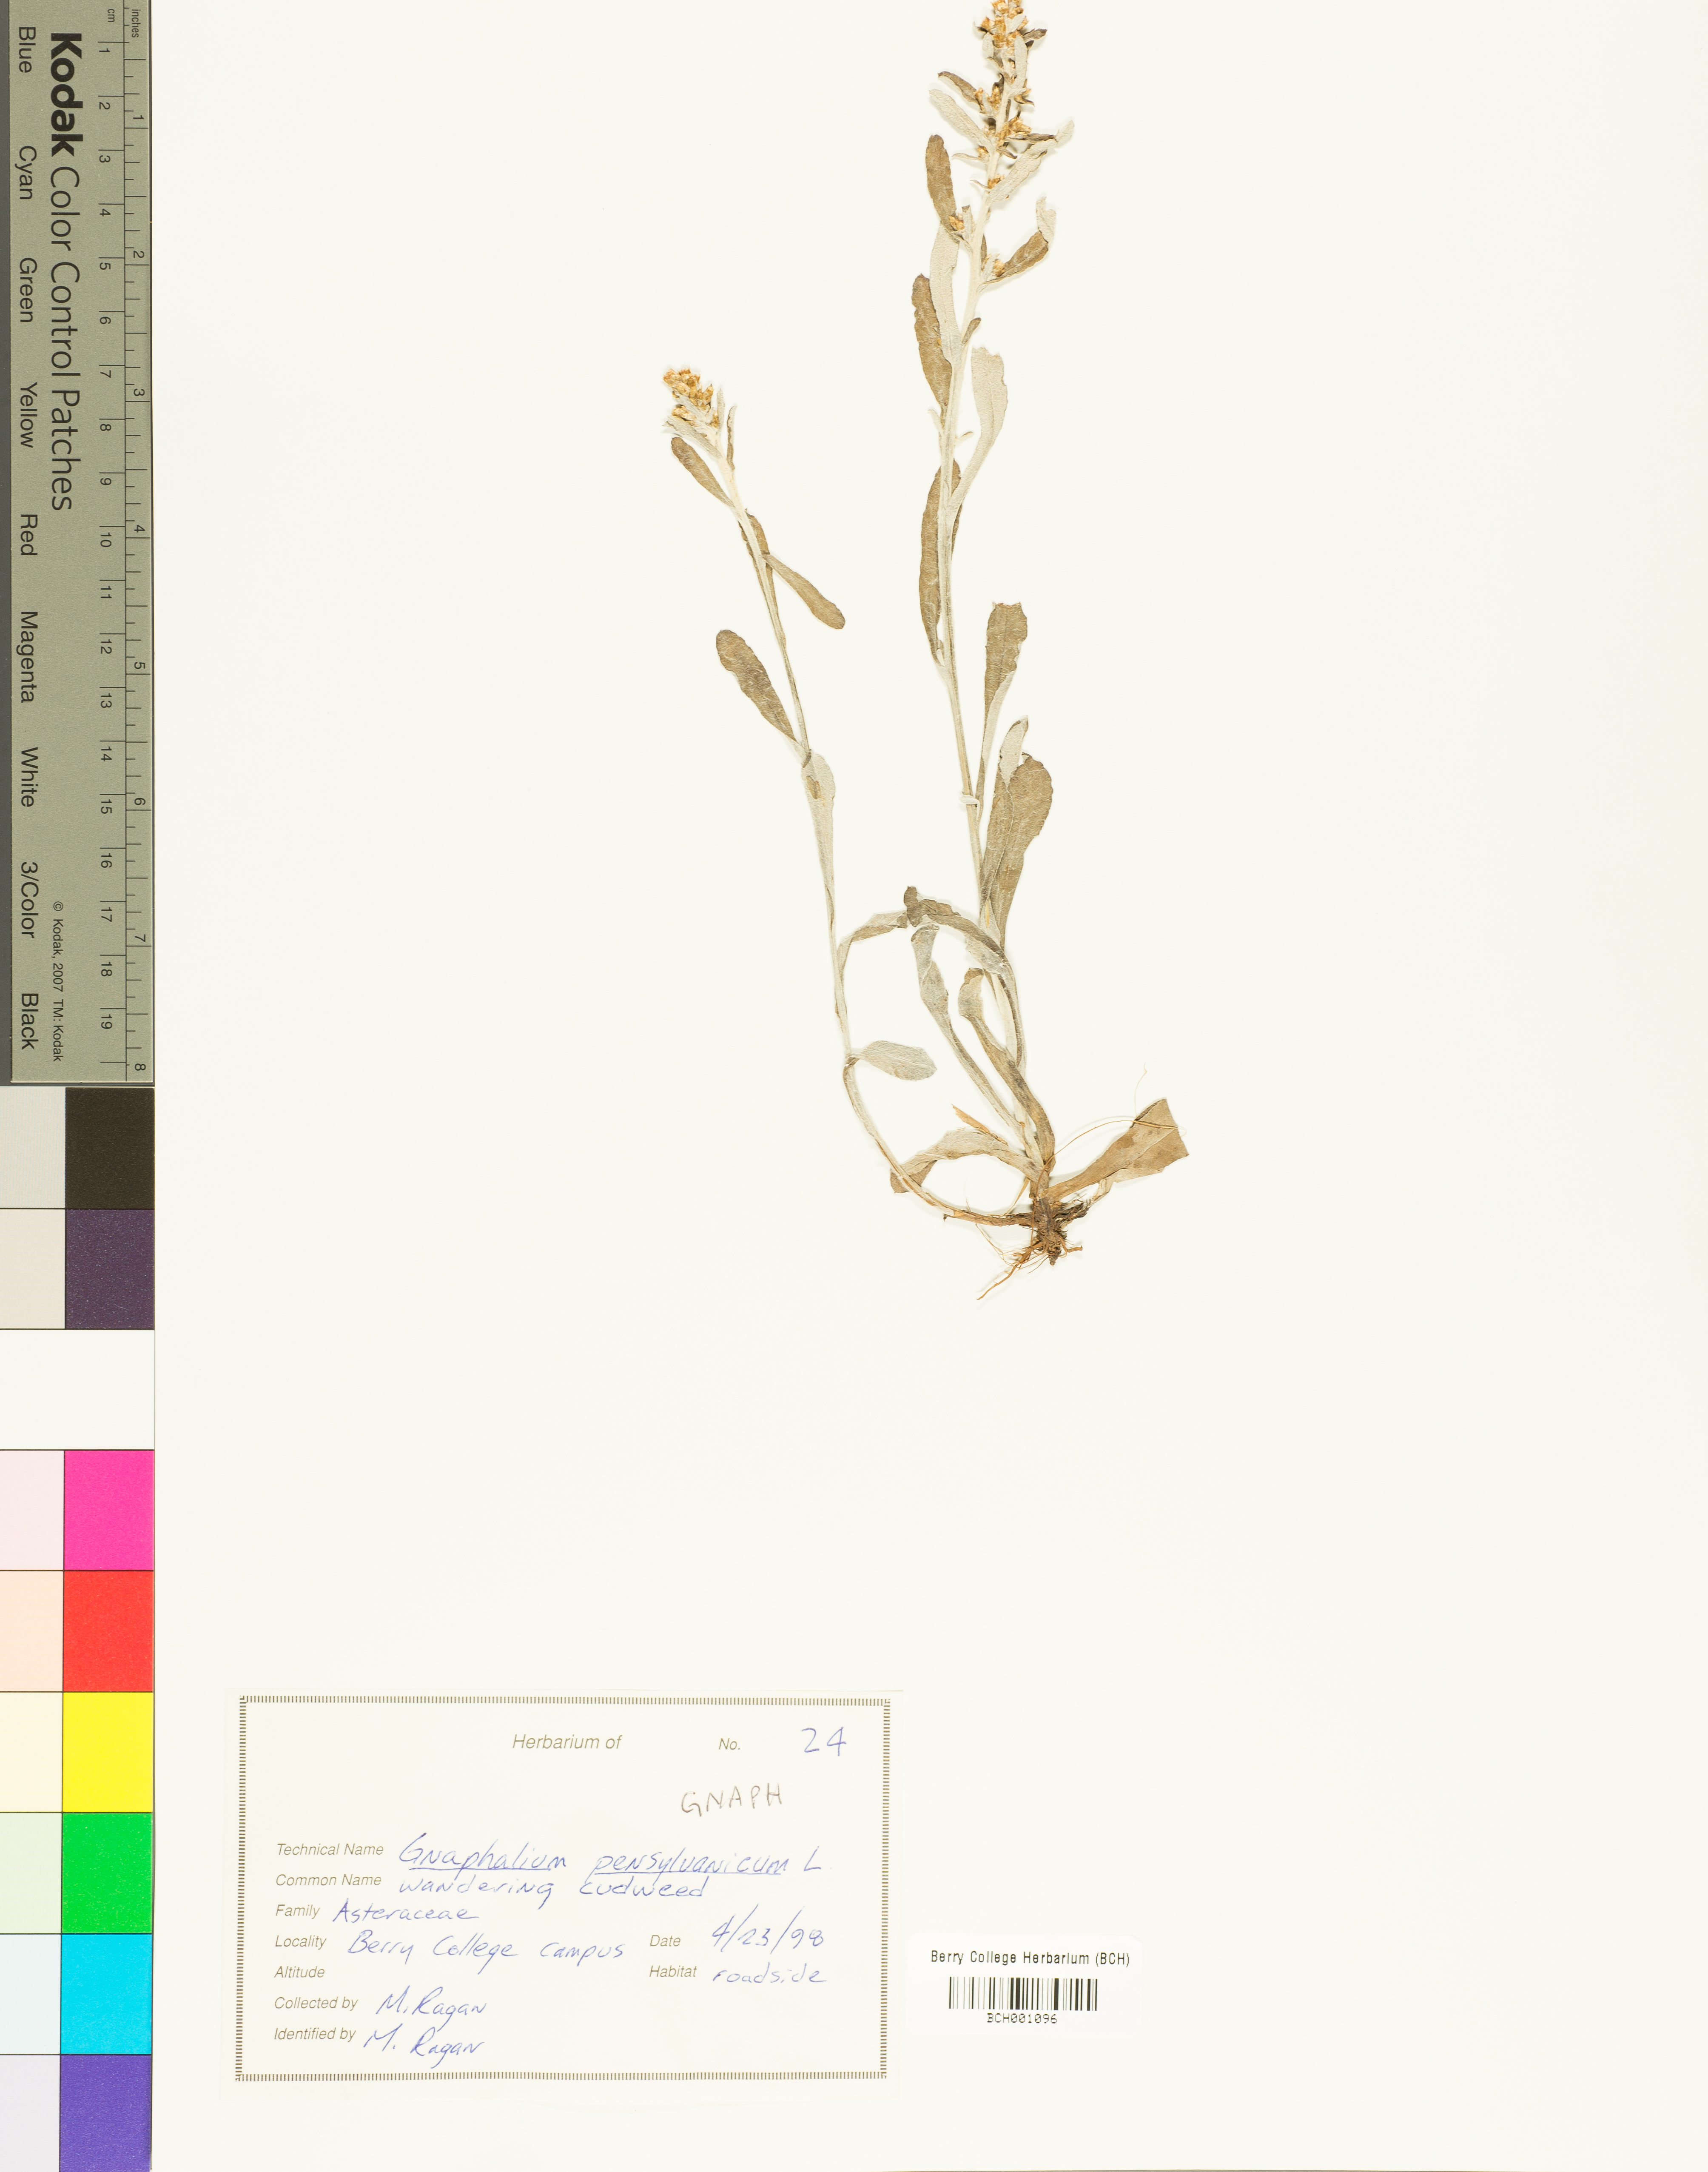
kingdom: Plantae
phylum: Tracheophyta
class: Magnoliopsida
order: Asterales
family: Asteraceae
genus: Gnaphalium
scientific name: Gnaphalium
